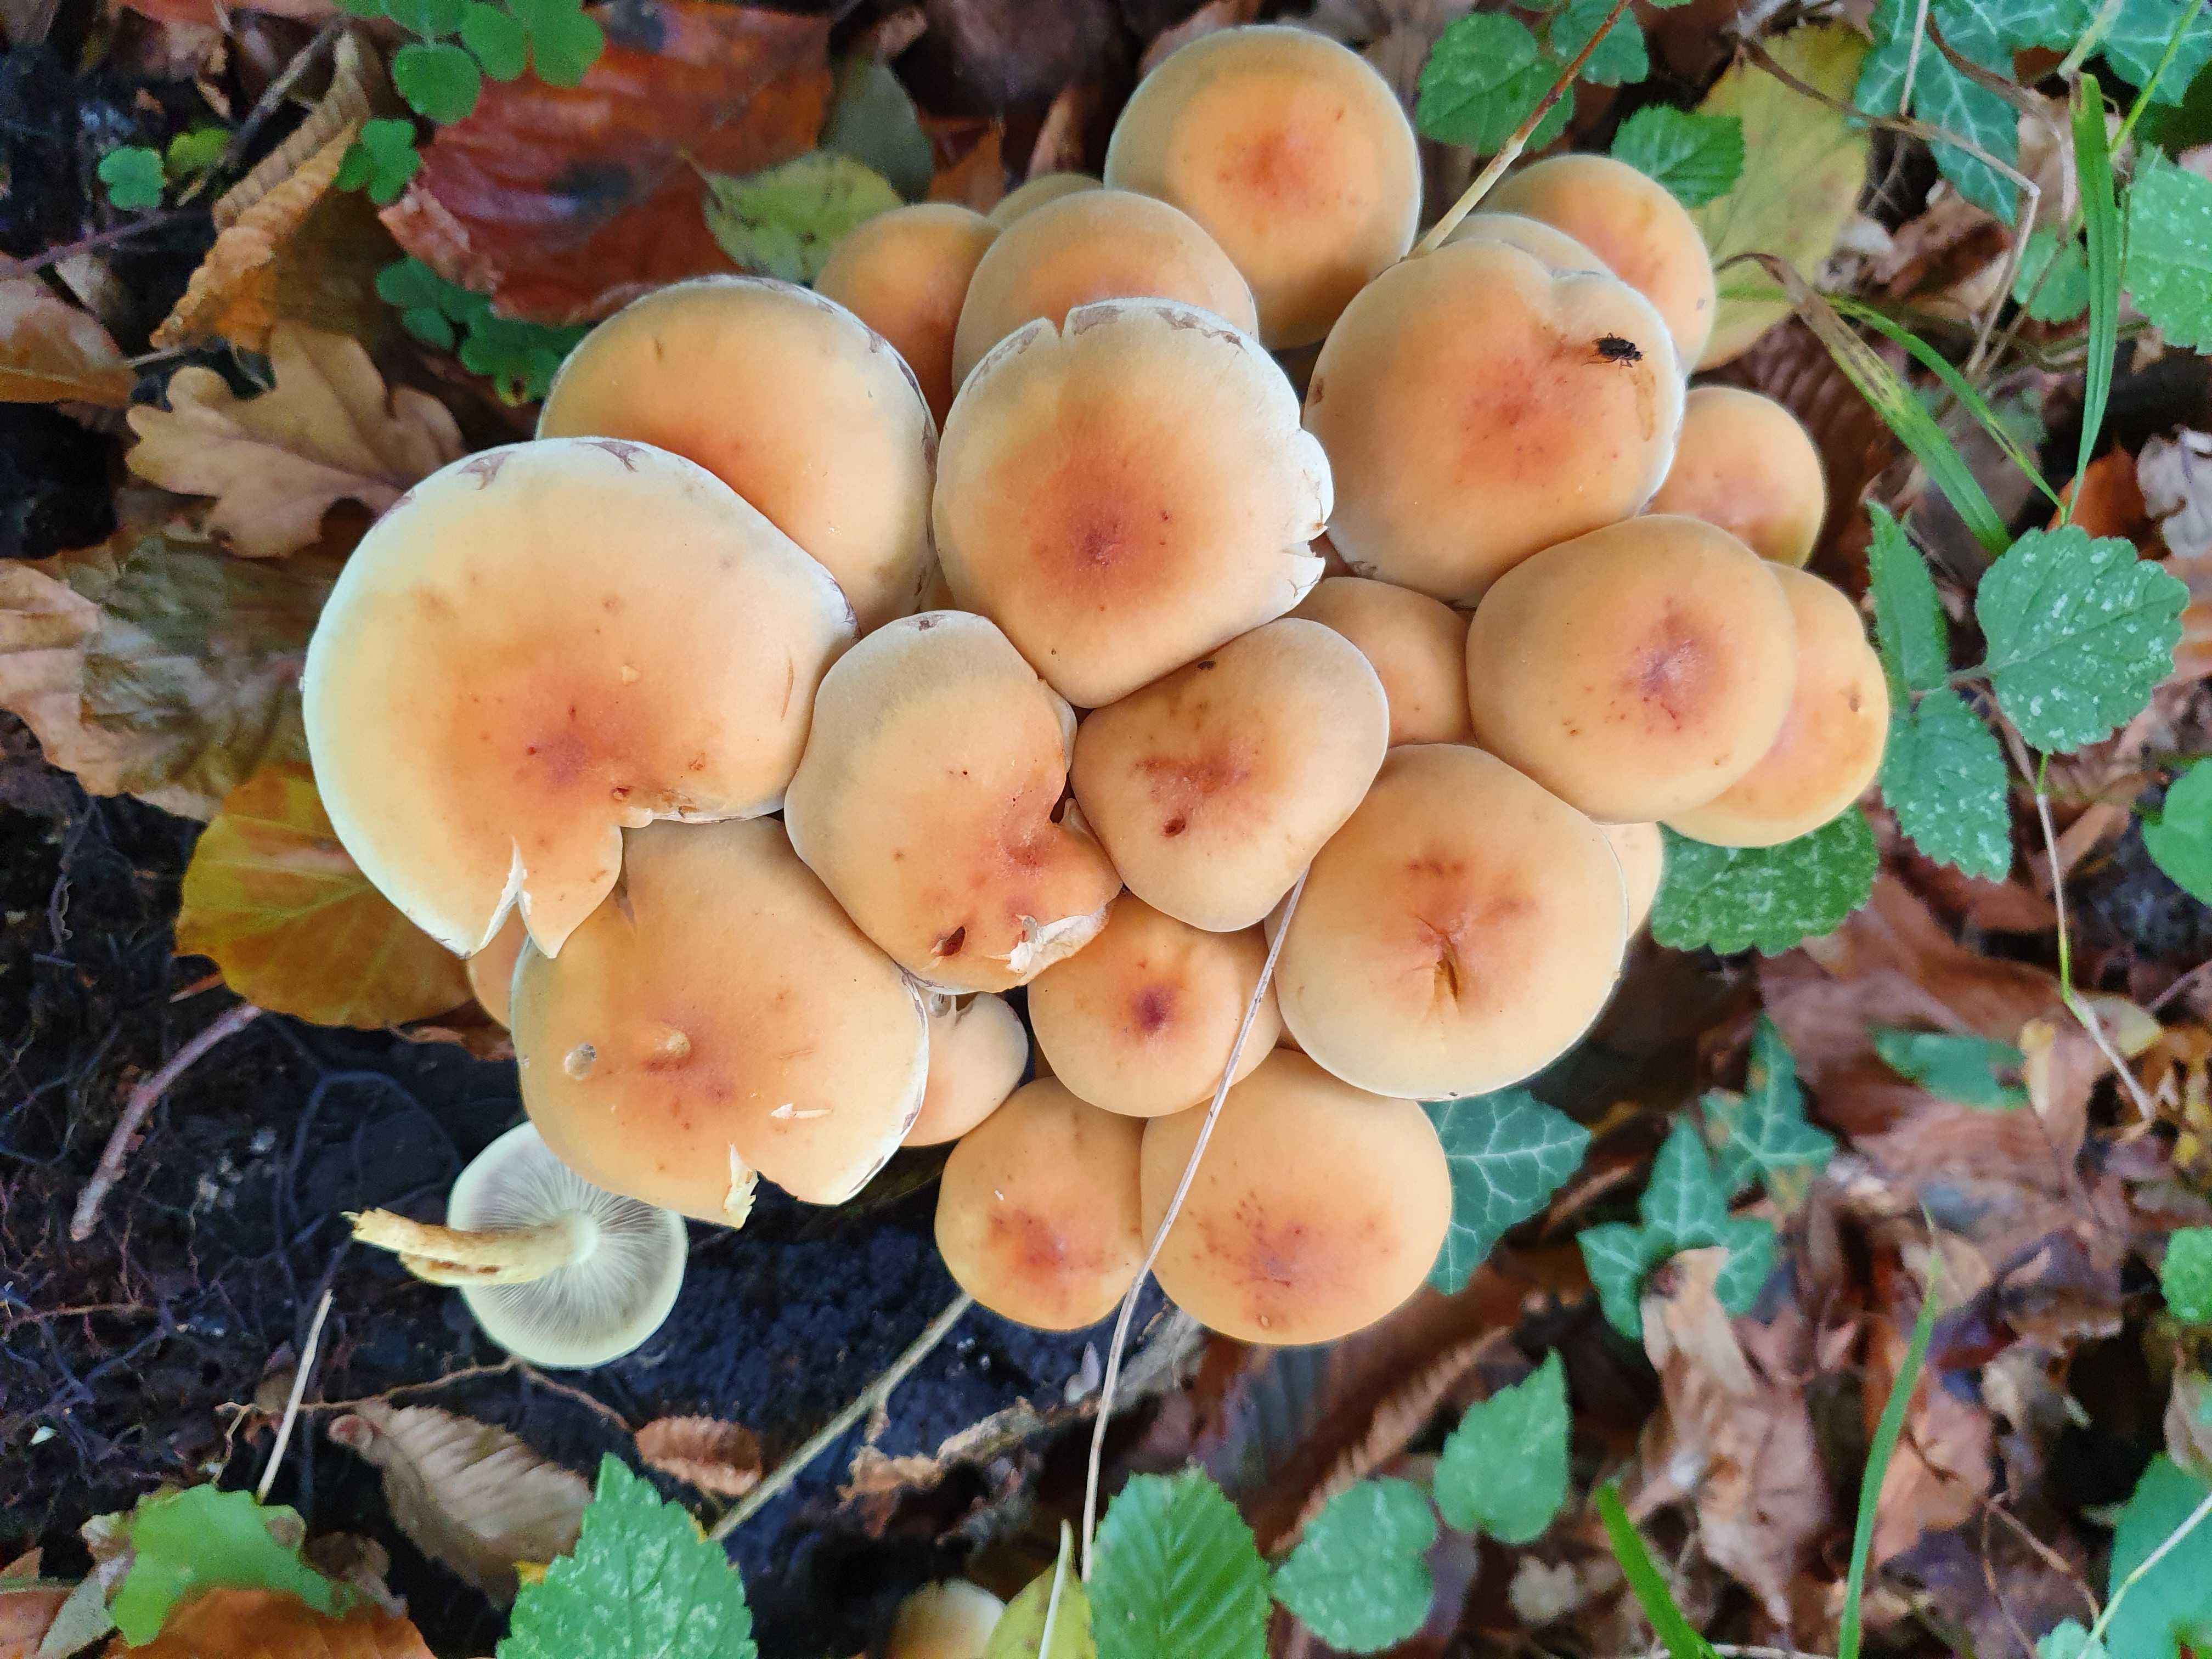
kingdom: Fungi
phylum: Basidiomycota
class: Agaricomycetes
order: Agaricales
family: Strophariaceae
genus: Hypholoma
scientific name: Hypholoma fasciculare
